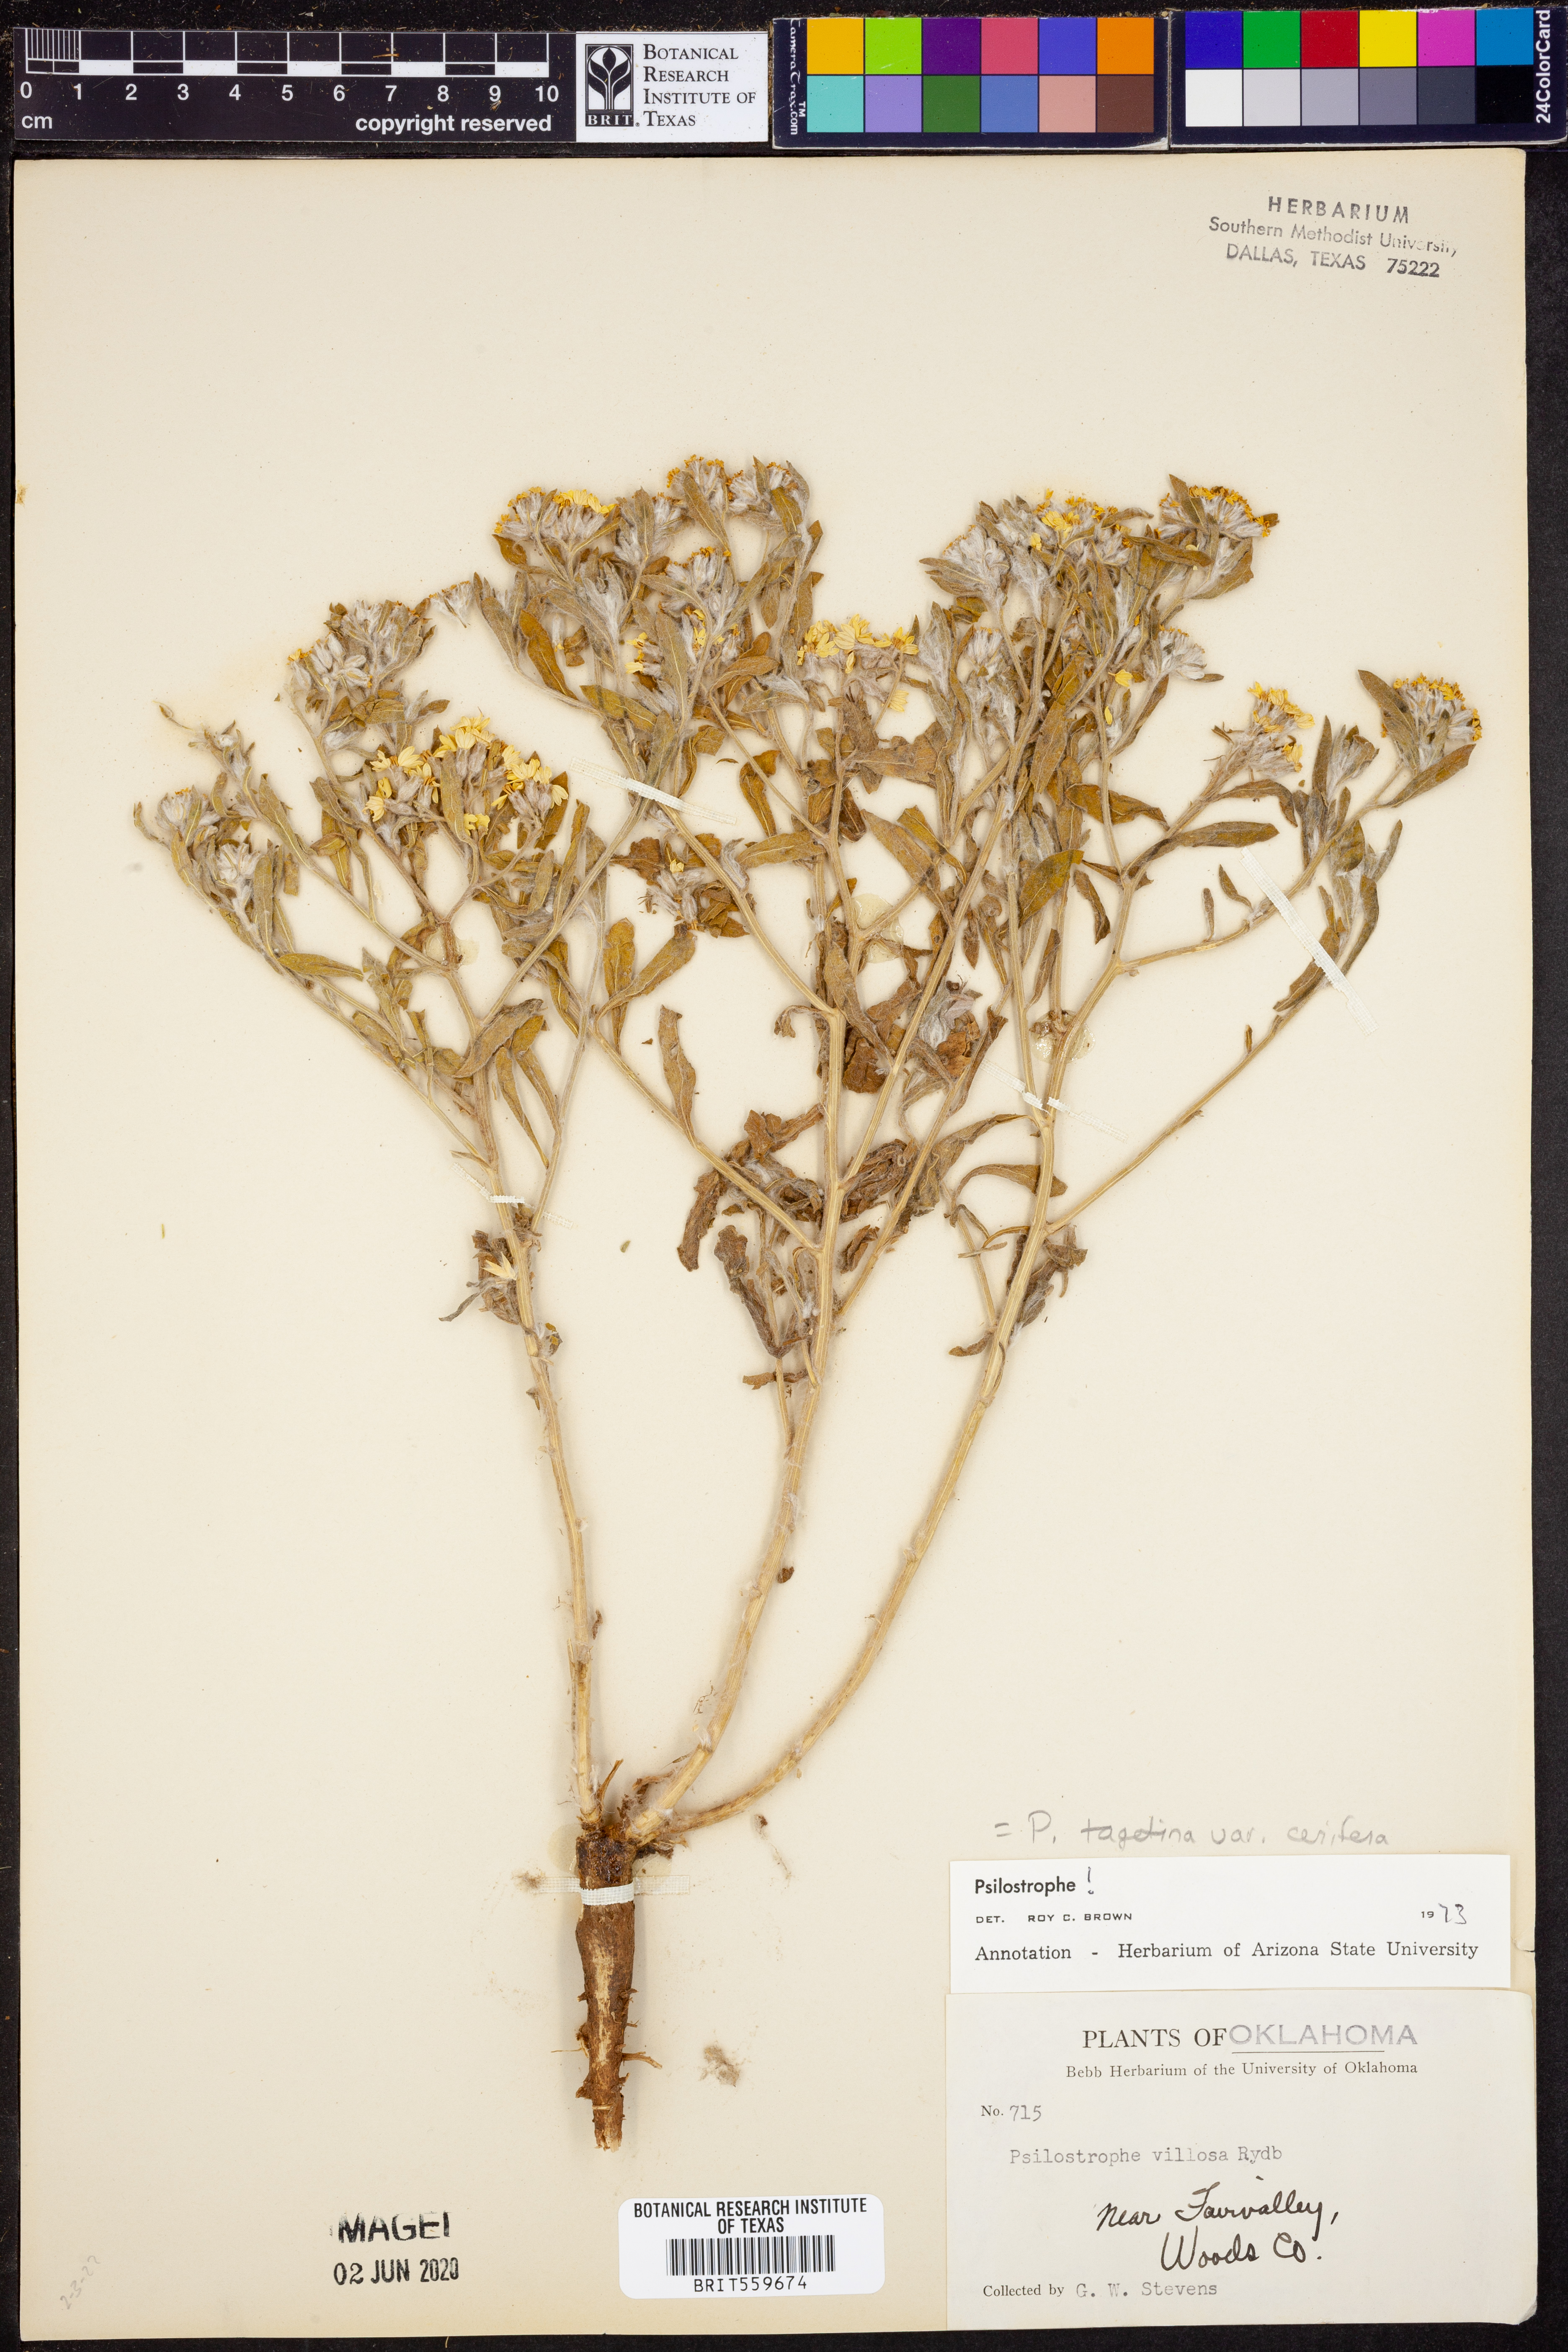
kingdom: Plantae
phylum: Tracheophyta
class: Magnoliopsida
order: Asterales
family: Asteraceae
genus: Psilostrophe
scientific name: Psilostrophe villosa
